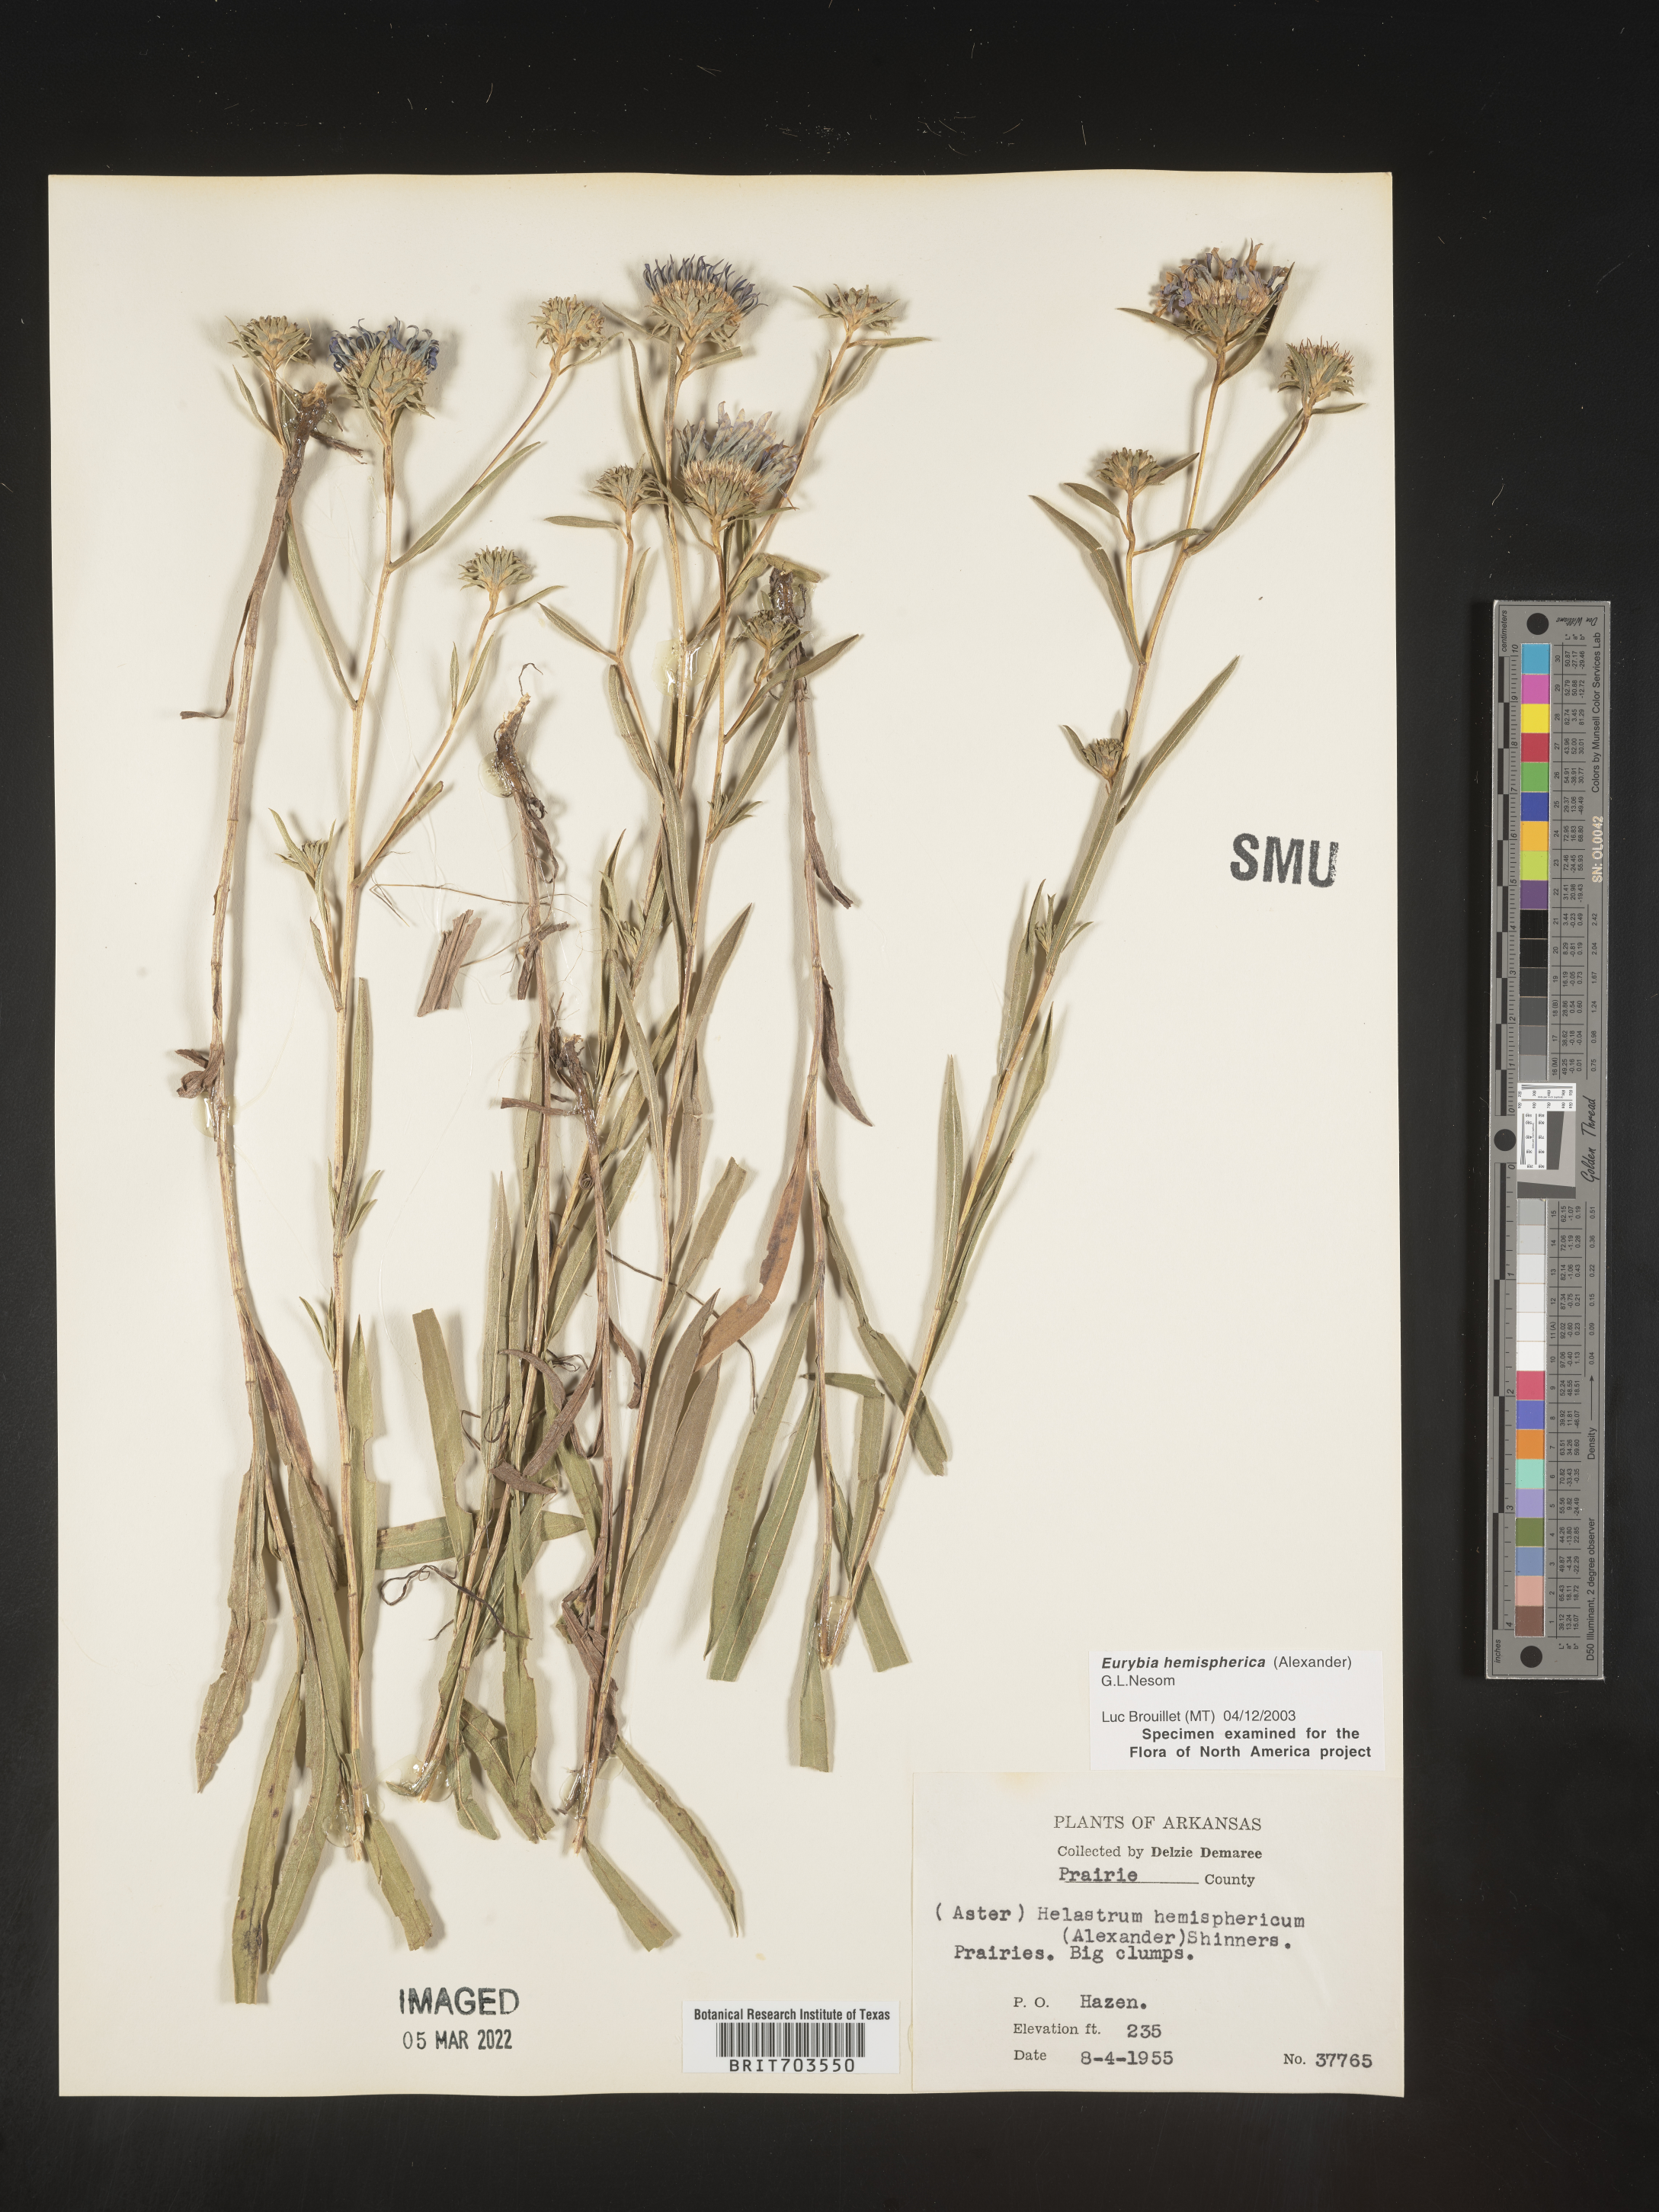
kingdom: Plantae
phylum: Tracheophyta
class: Magnoliopsida
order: Asterales
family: Asteraceae
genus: Eurybia
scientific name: Eurybia hemispherica
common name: Showy aster
